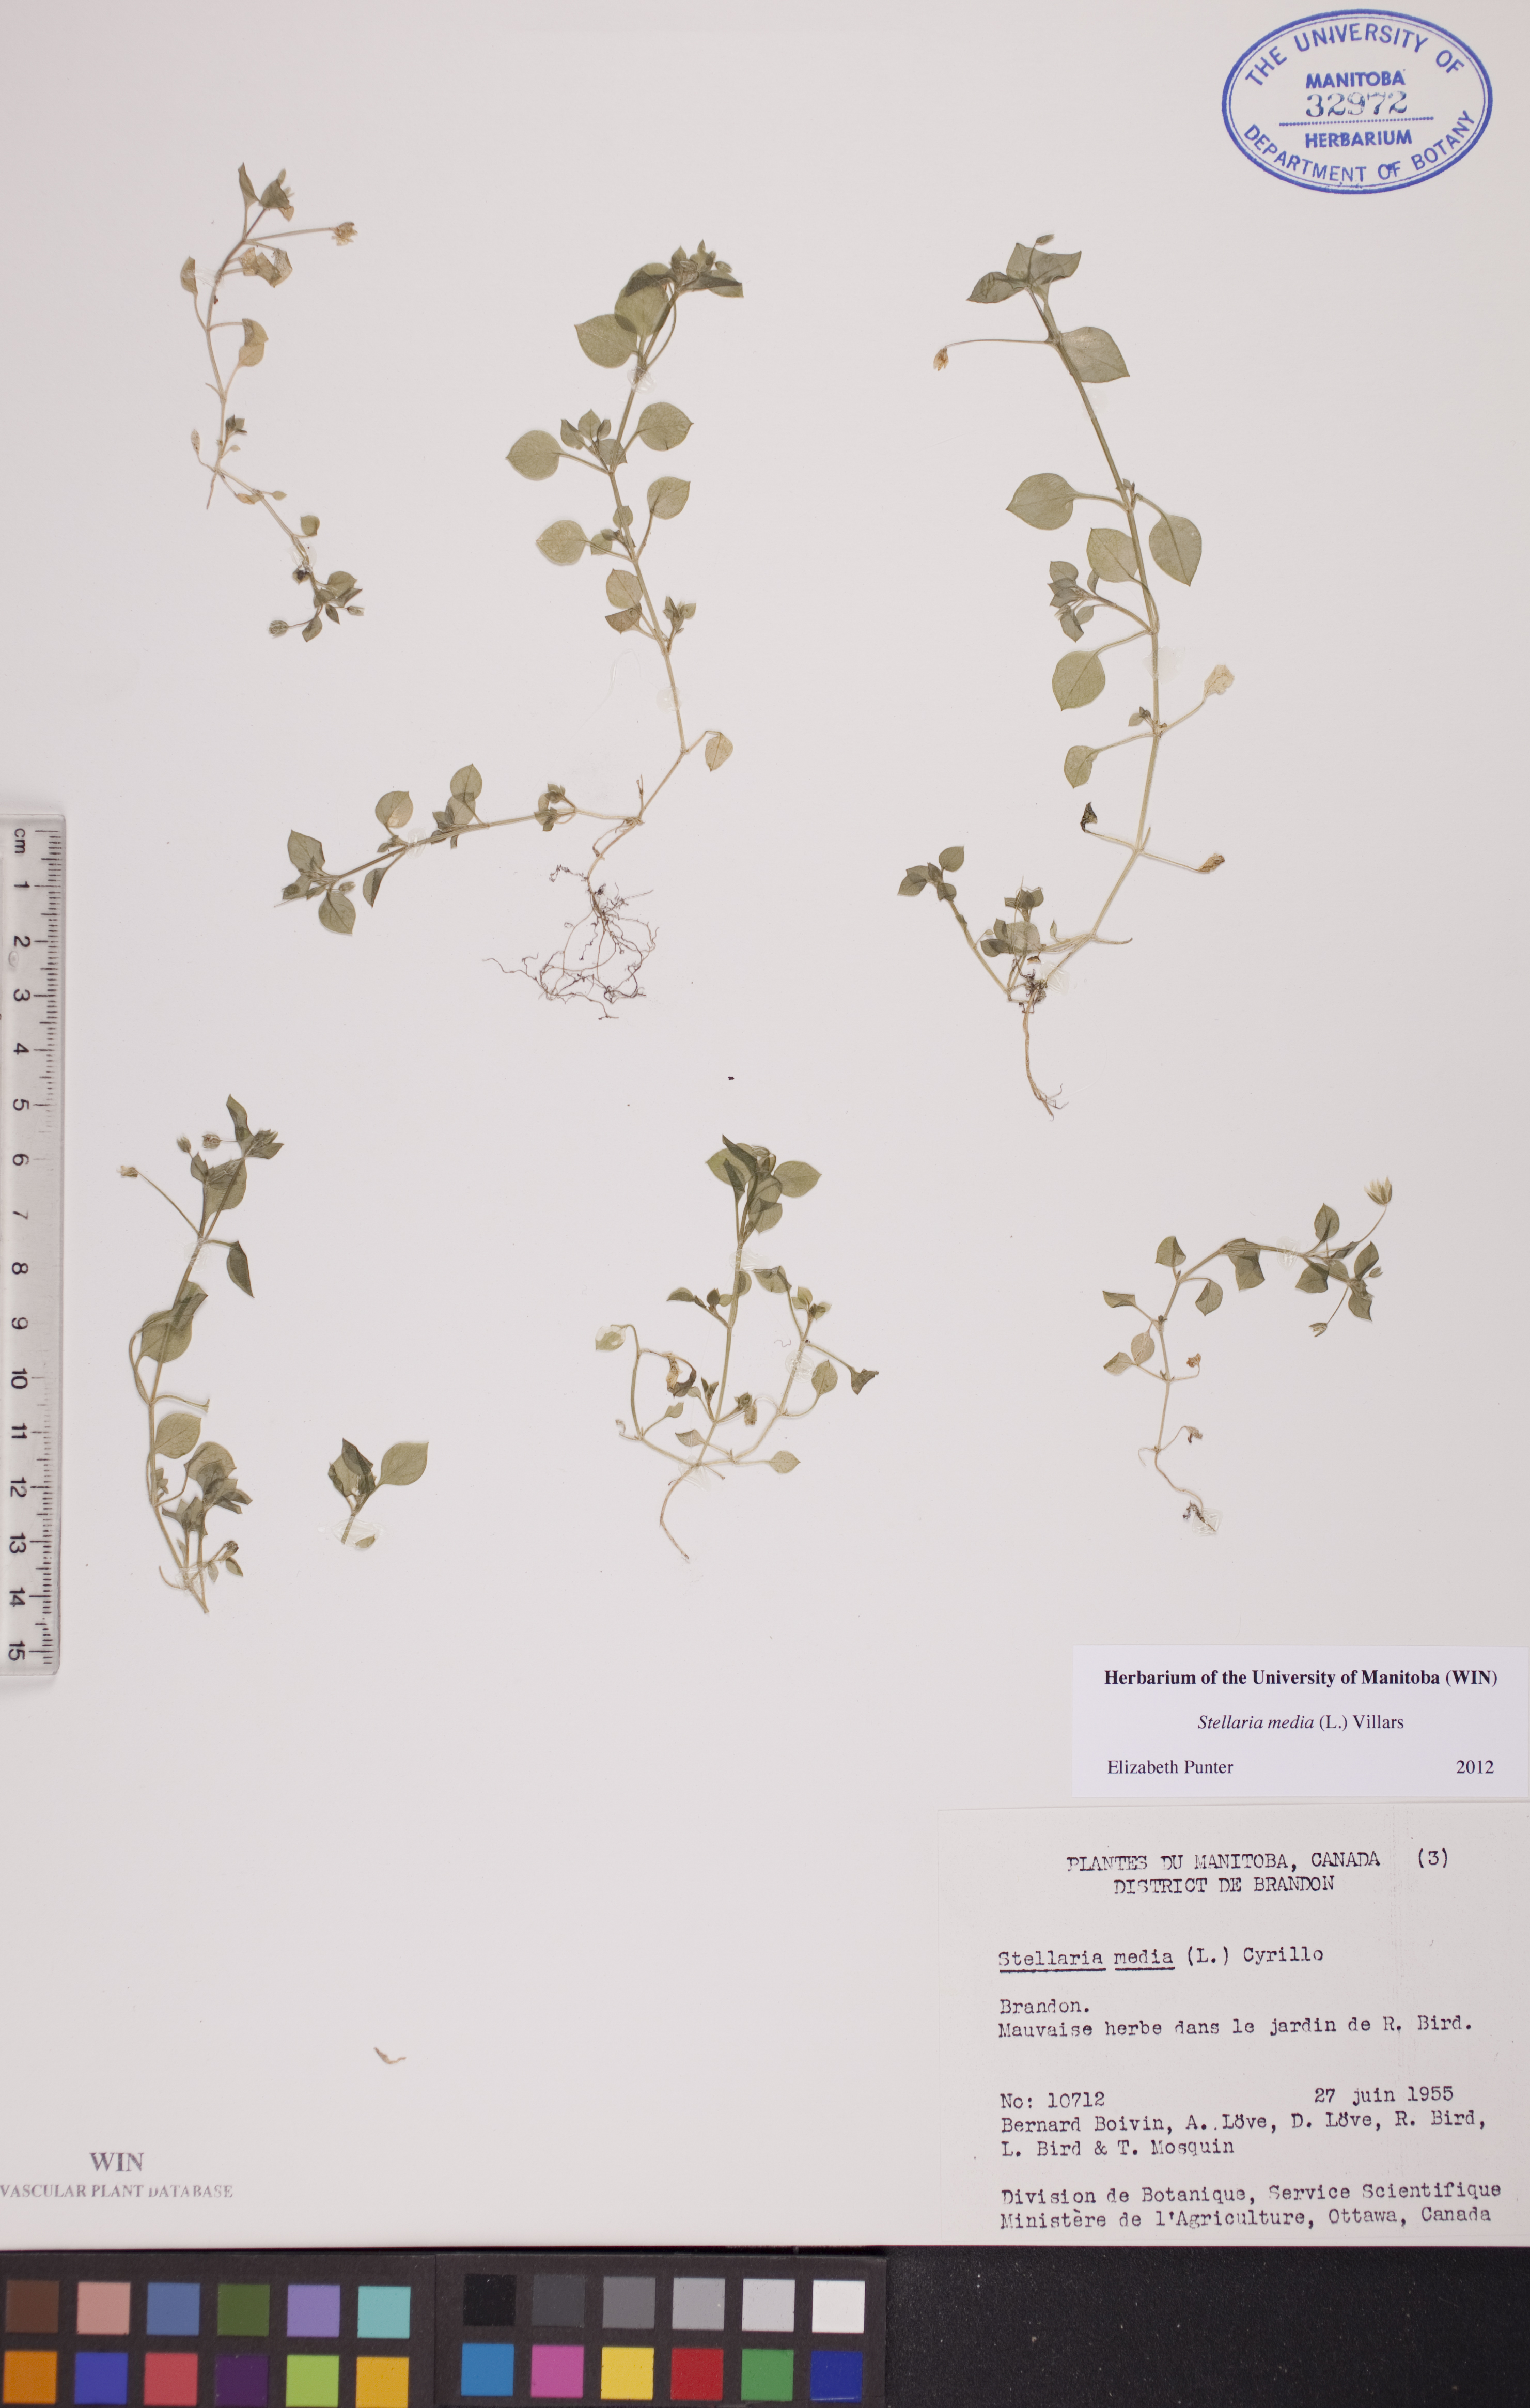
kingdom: Plantae
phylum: Tracheophyta
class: Magnoliopsida
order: Caryophyllales
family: Caryophyllaceae
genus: Stellaria
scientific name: Stellaria media
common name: Common chickweed
